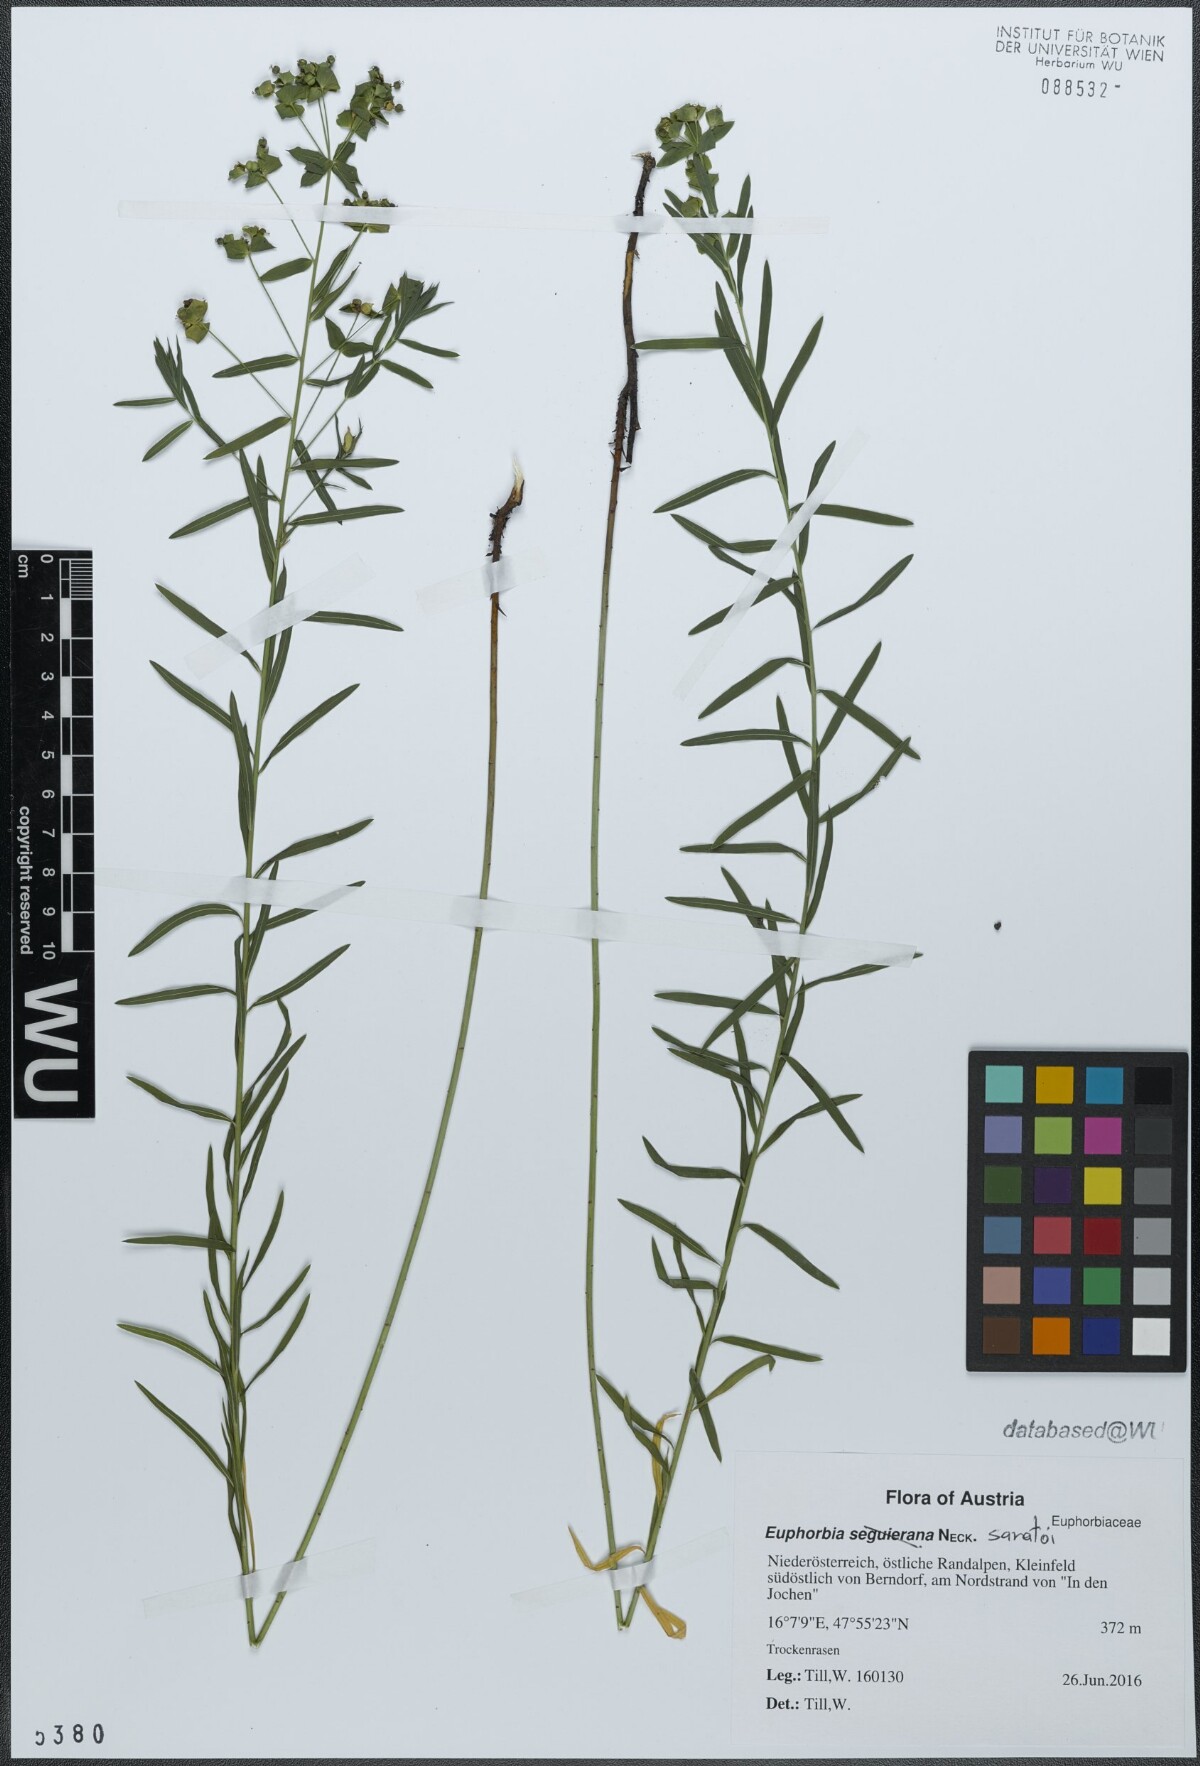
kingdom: Plantae
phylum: Tracheophyta
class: Magnoliopsida
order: Malpighiales
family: Euphorbiaceae
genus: Euphorbia
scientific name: Euphorbia saratoi
